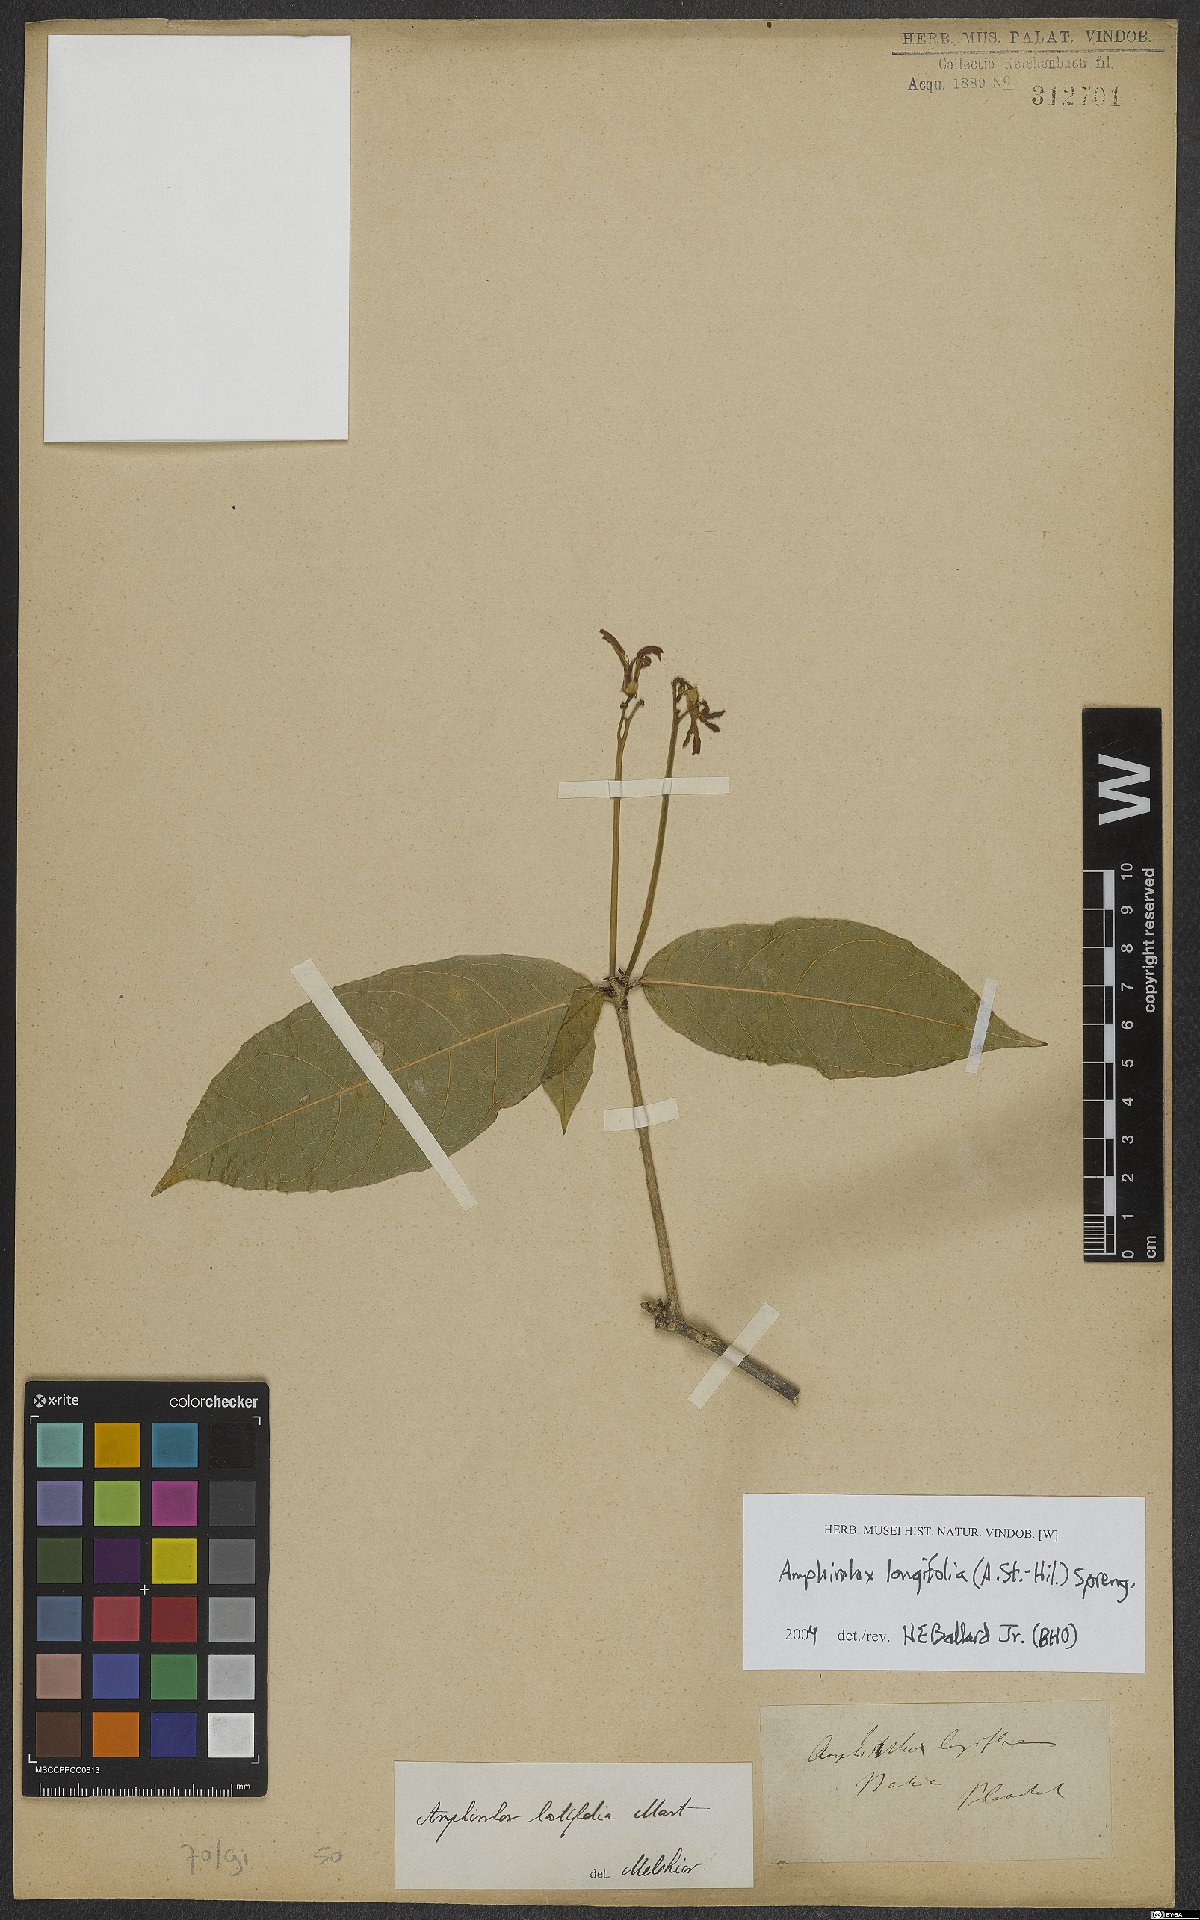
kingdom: Plantae
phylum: Tracheophyta
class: Magnoliopsida
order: Malpighiales
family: Violaceae
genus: Amphirrhox
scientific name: Amphirrhox longifolia
